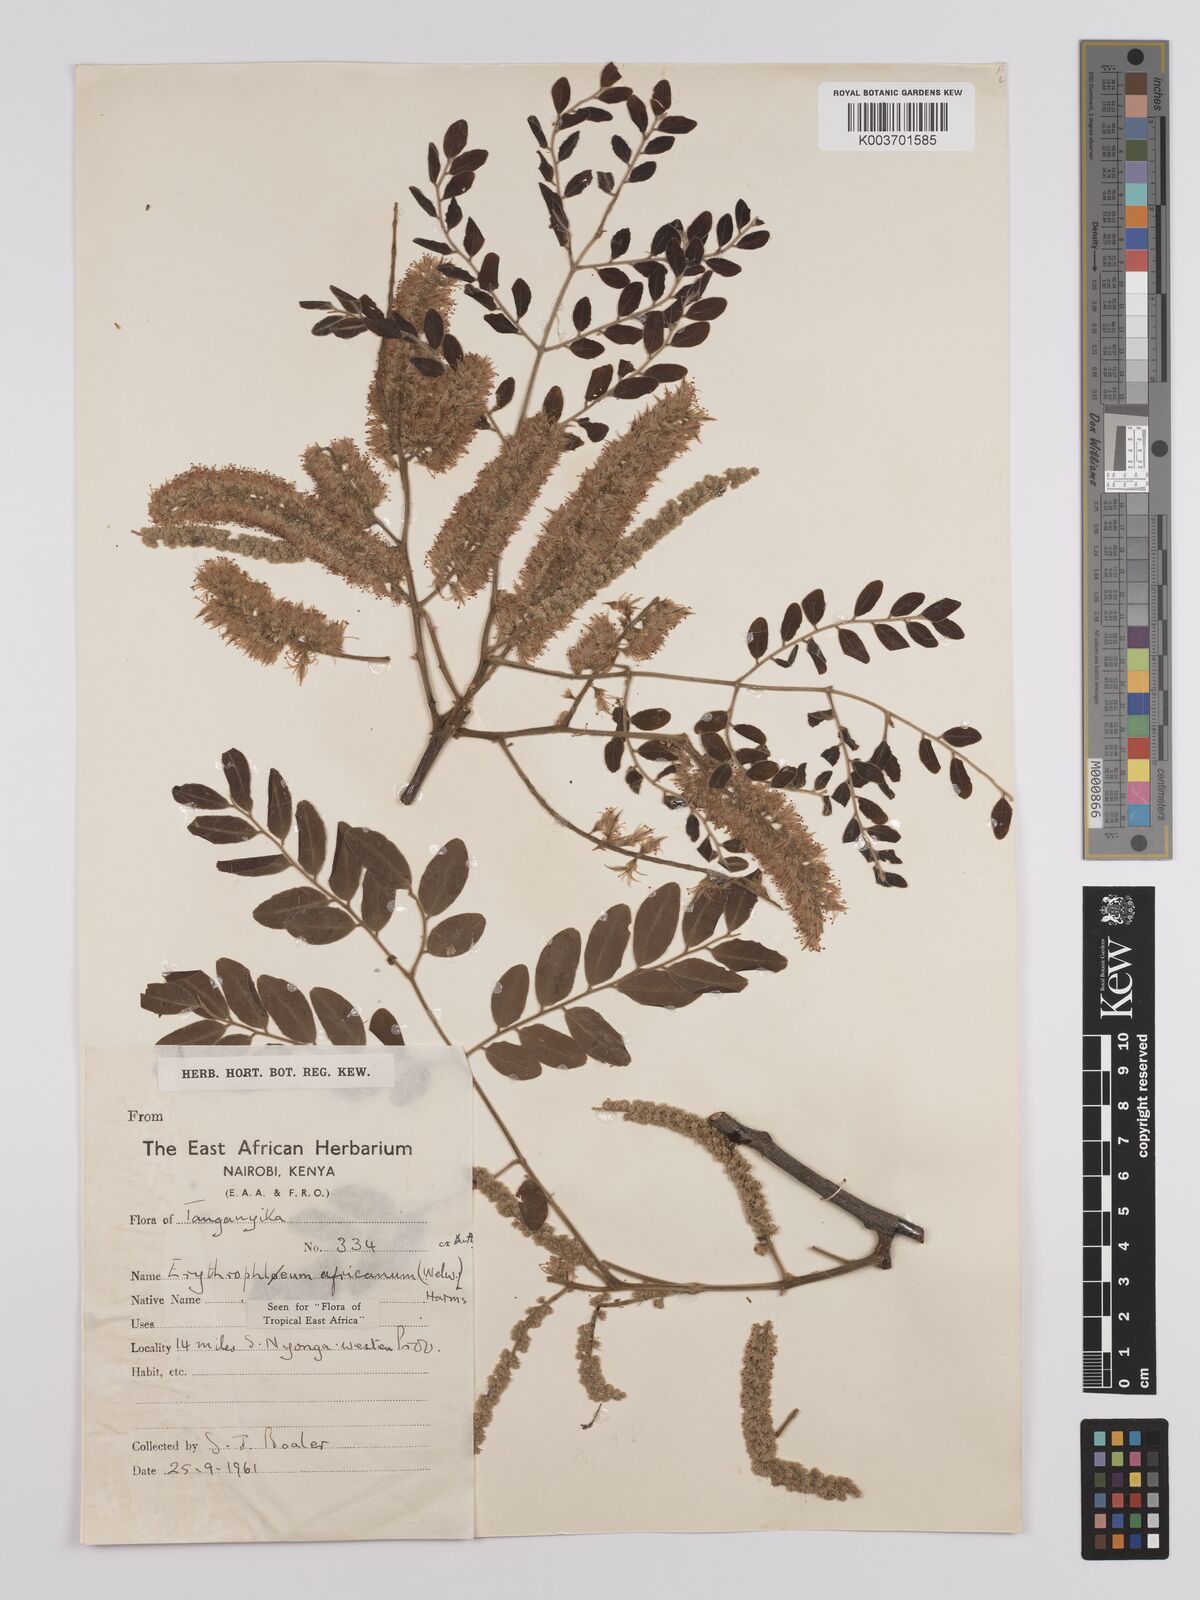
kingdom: Plantae
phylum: Tracheophyta
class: Magnoliopsida
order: Fabales
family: Fabaceae
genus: Erythrophleum
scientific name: Erythrophleum africanum
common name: African blackwood
